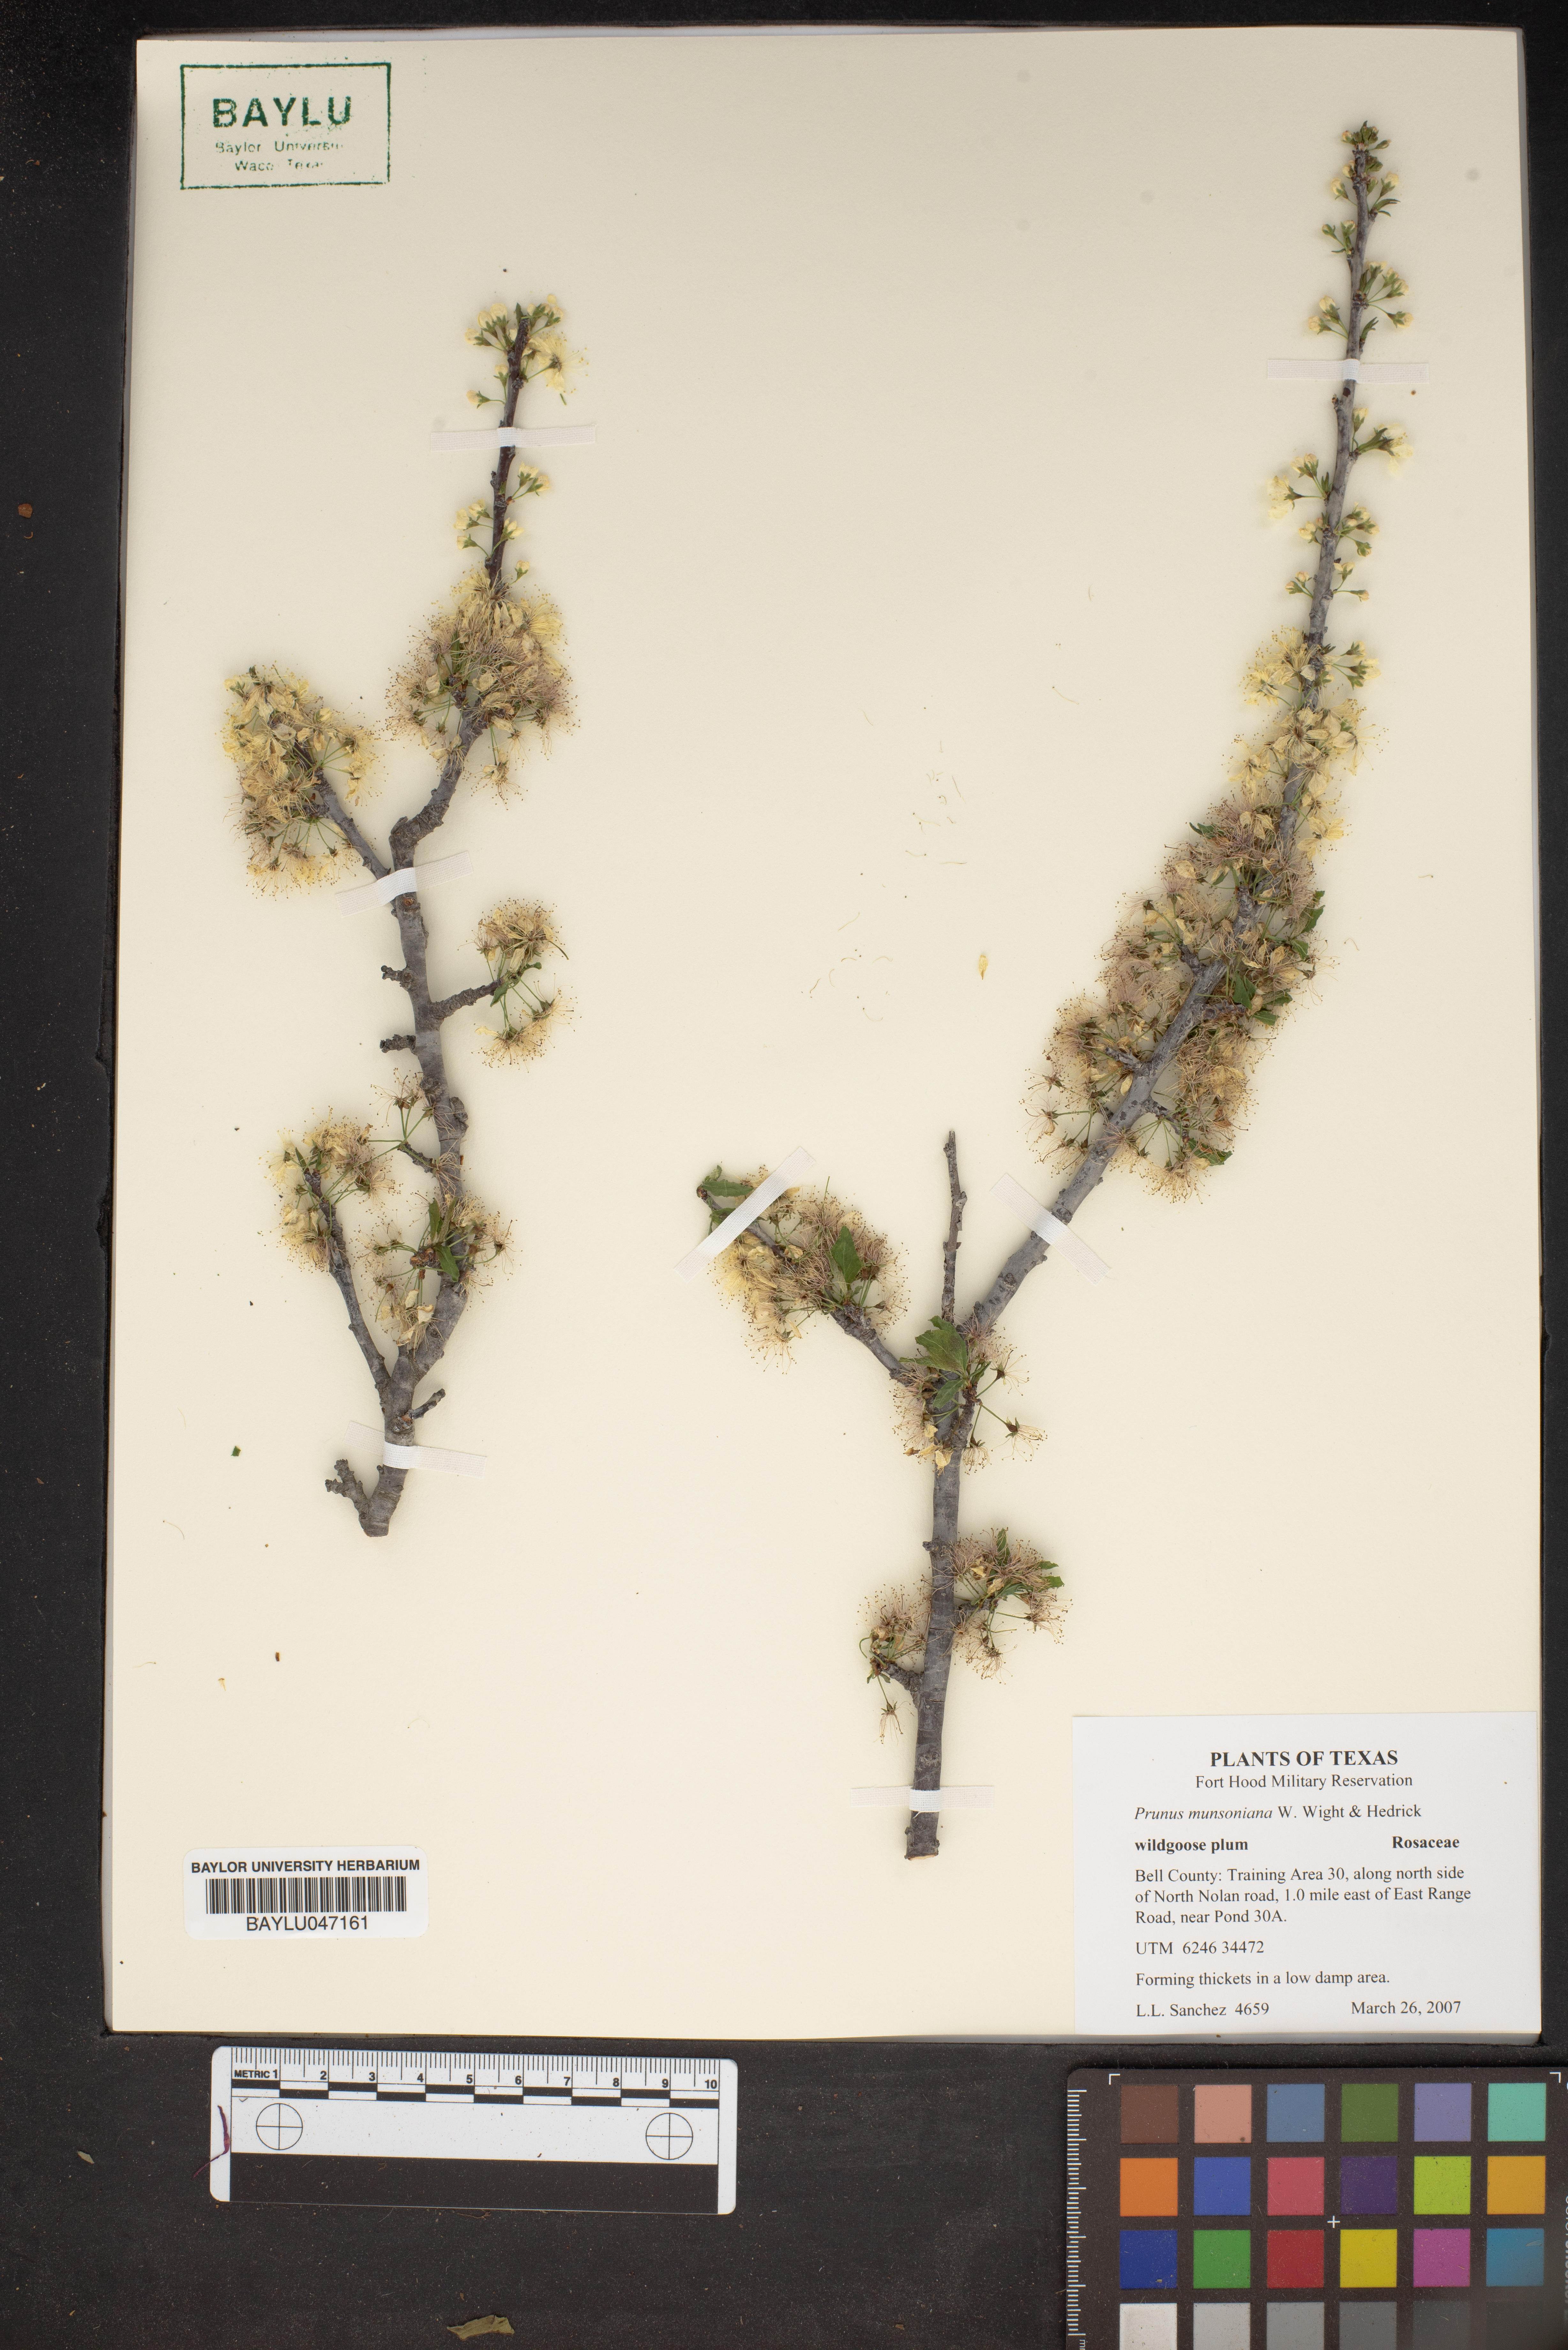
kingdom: Plantae
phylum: Tracheophyta
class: Magnoliopsida
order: Rosales
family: Rosaceae
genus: Prunus
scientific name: Prunus munsoniana
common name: Creek plum
